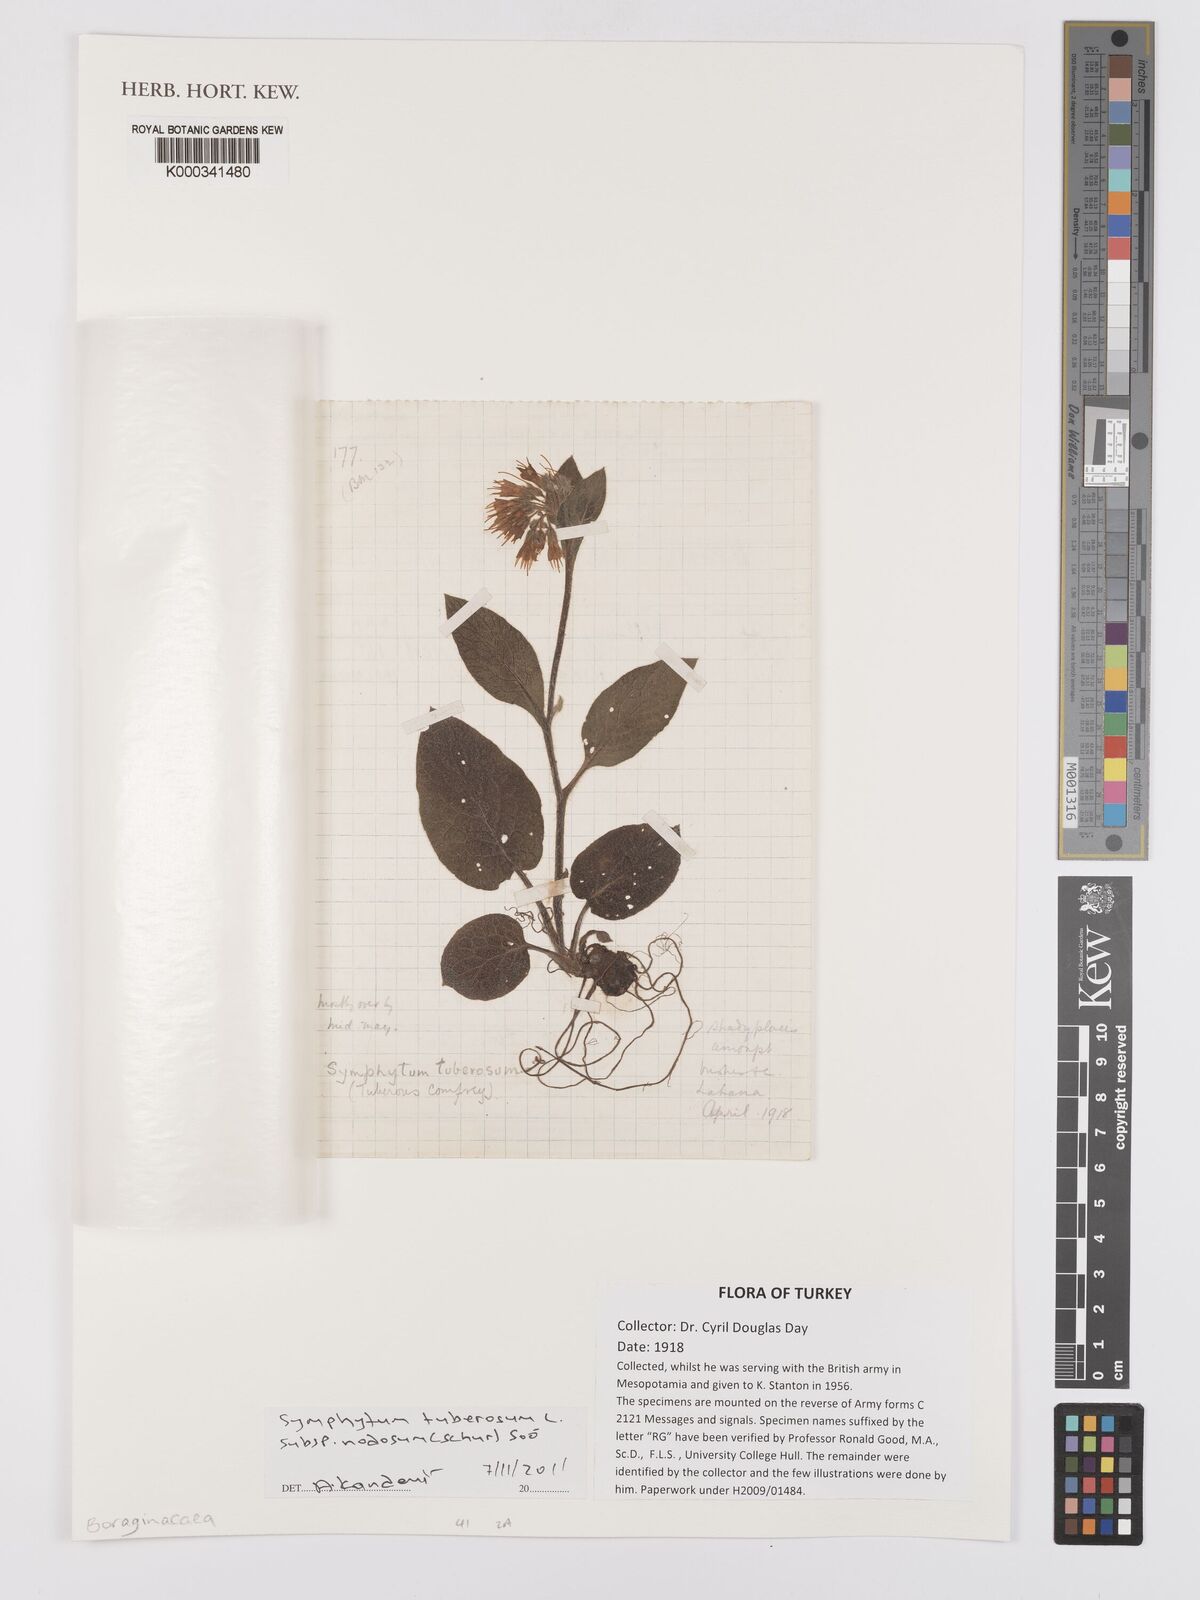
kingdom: Plantae
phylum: Tracheophyta
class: Magnoliopsida
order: Boraginales
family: Boraginaceae
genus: Symphytum
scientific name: Symphytum tuberosum
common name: Tuberous comfrey
